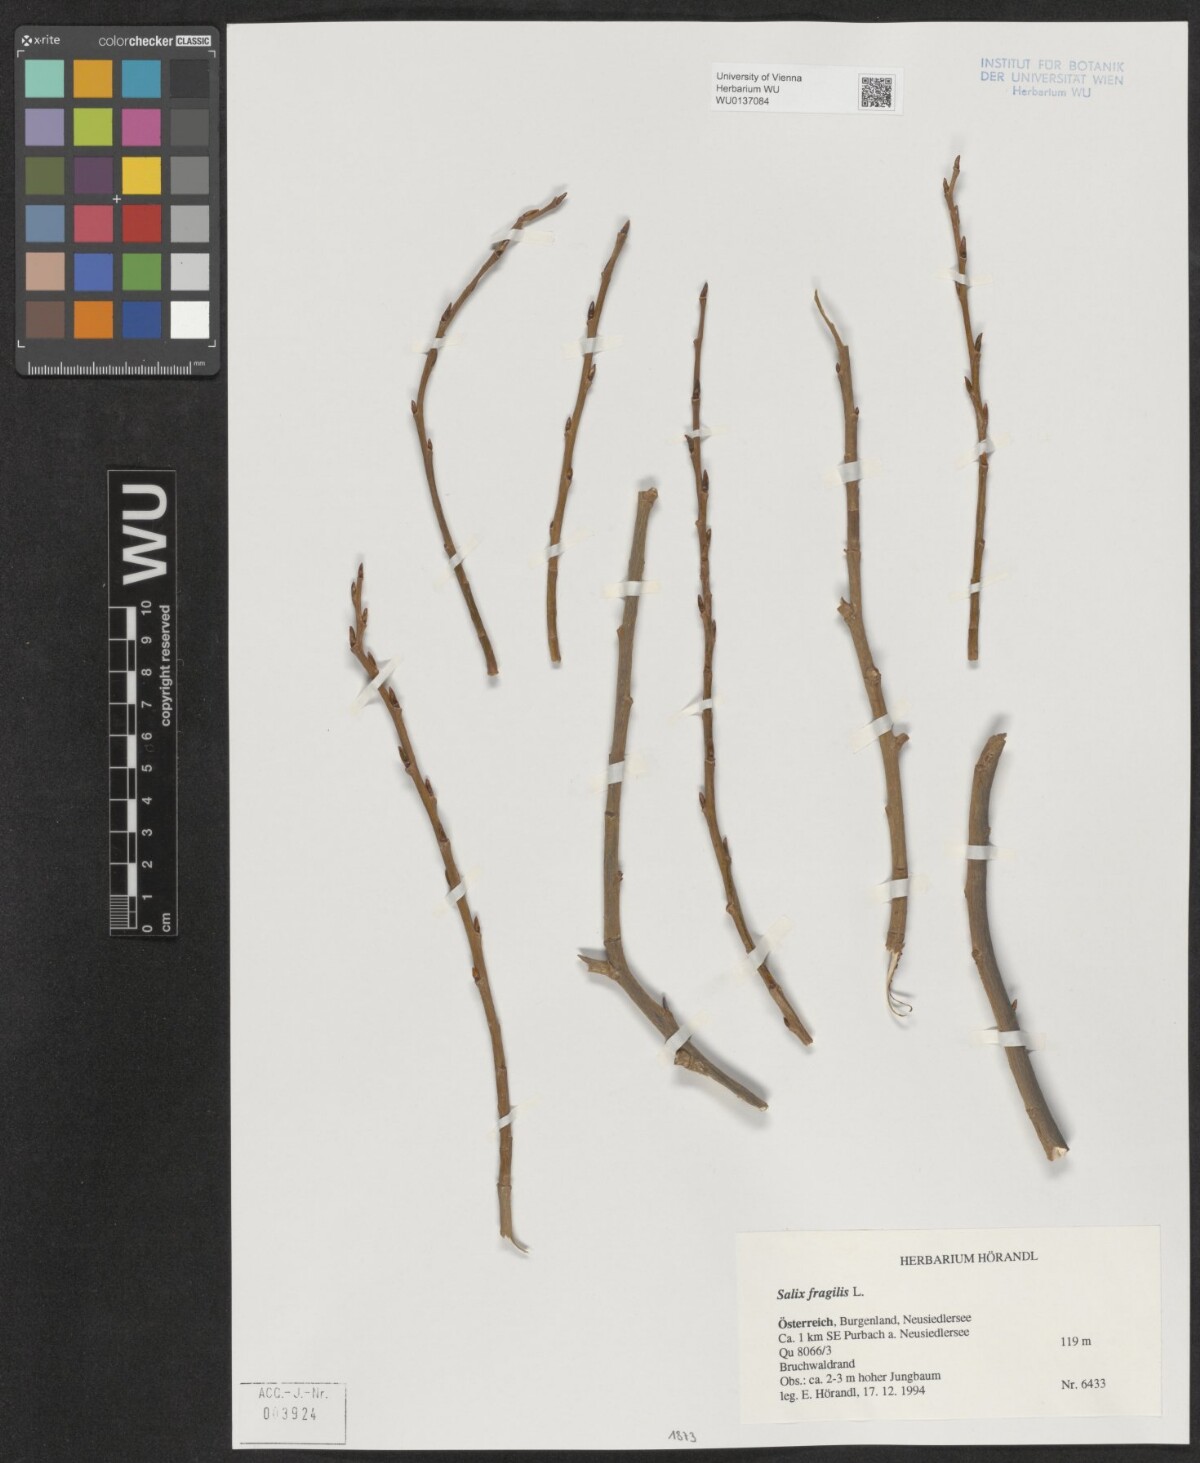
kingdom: Plantae
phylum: Tracheophyta
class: Magnoliopsida
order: Malpighiales
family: Salicaceae
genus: Salix
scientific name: Salix fragilis
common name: Crack willow
